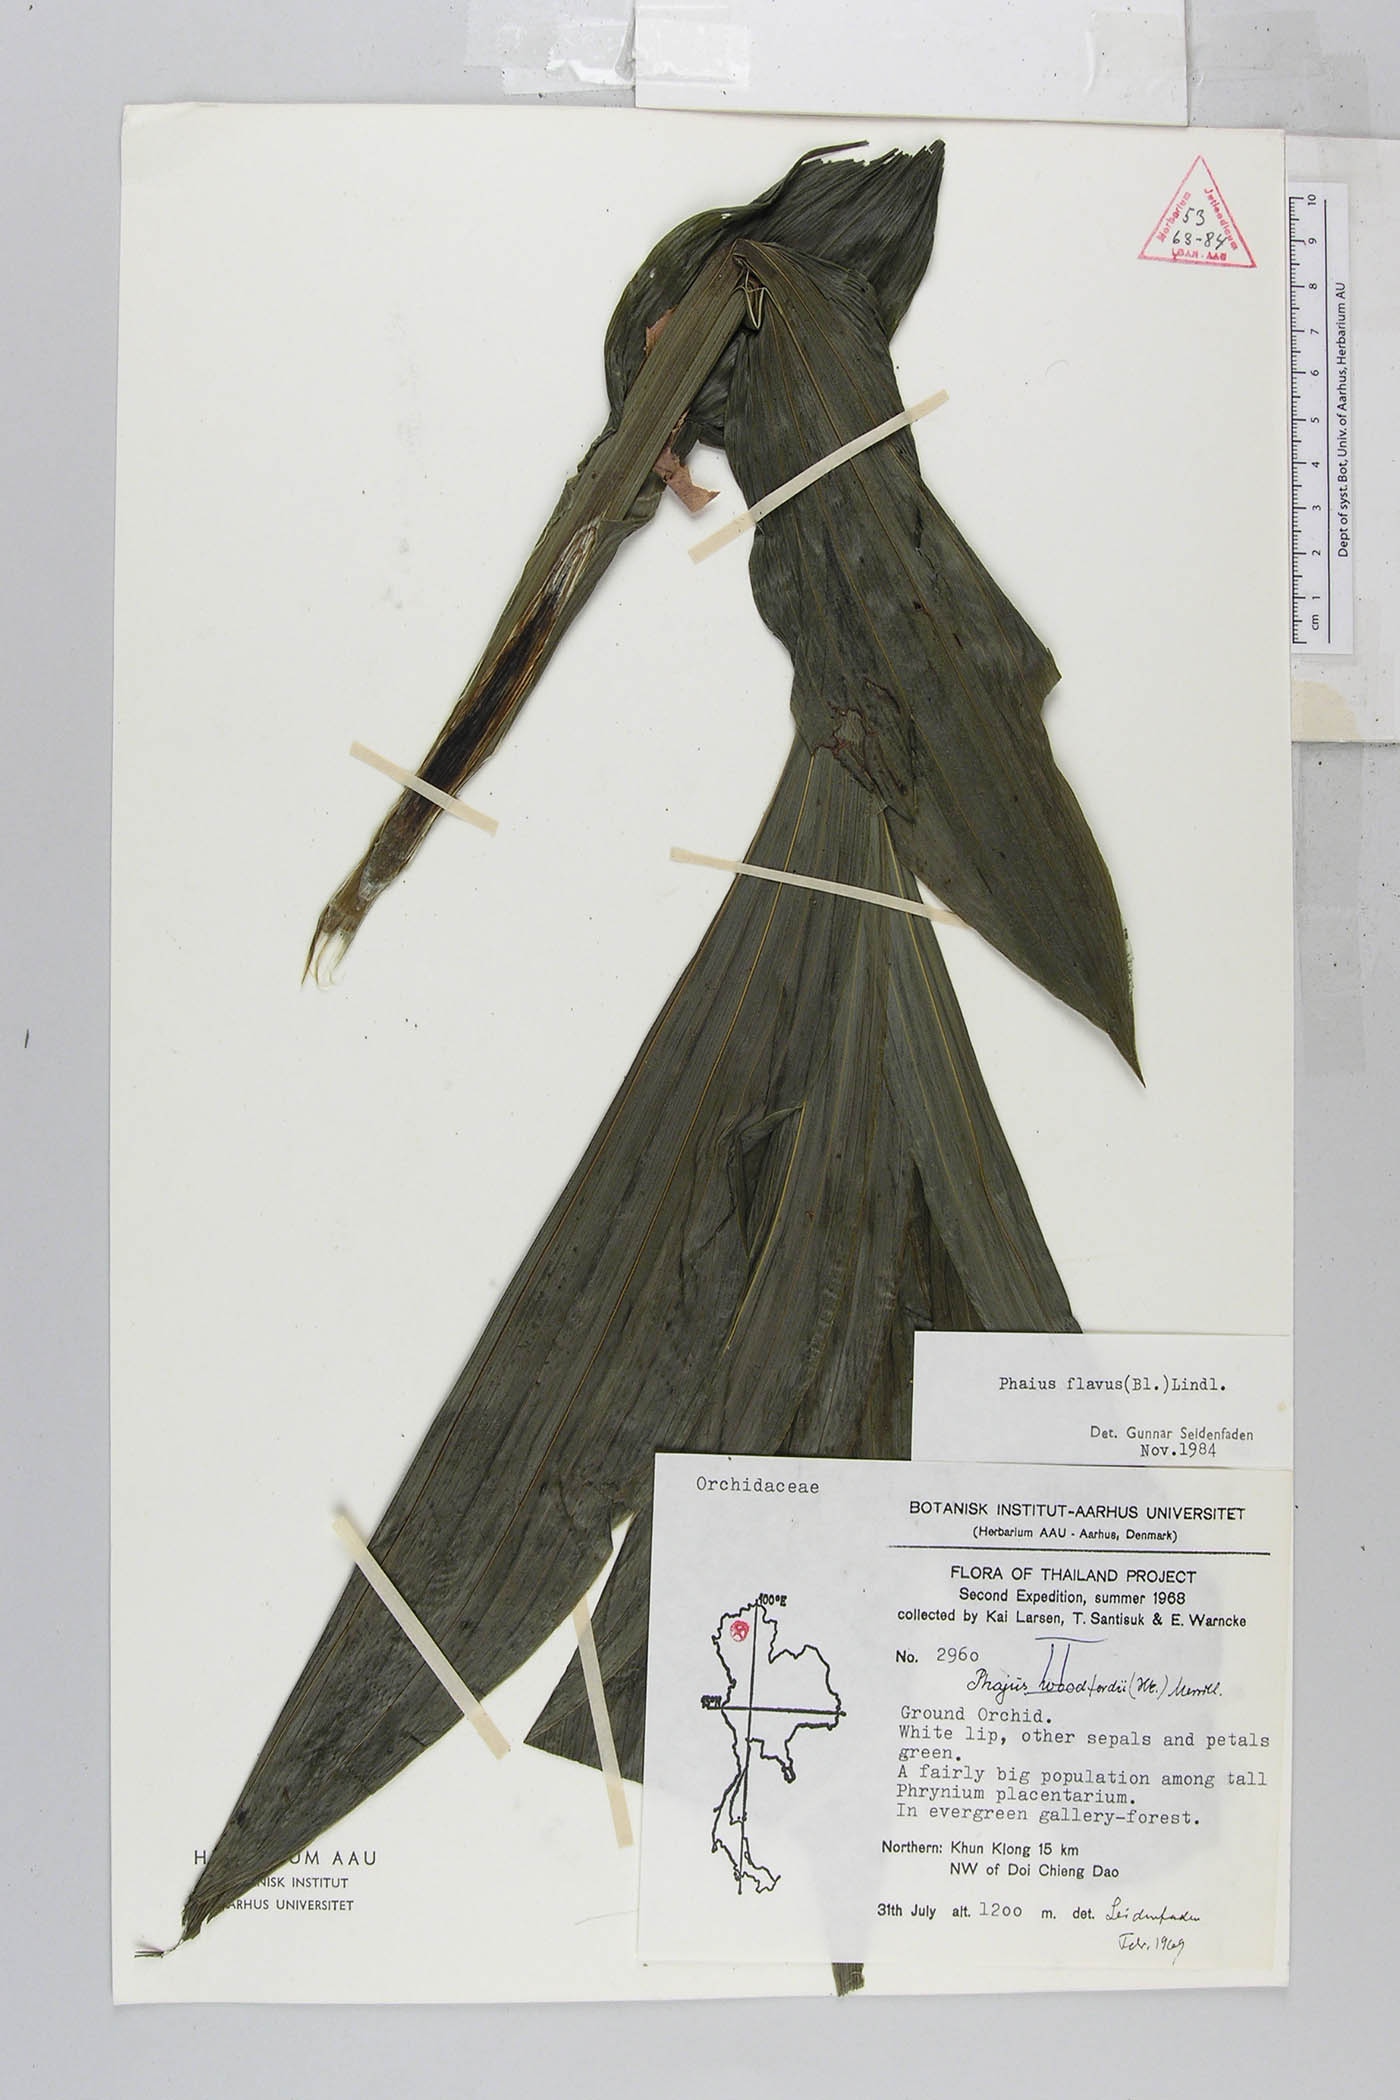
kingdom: Plantae
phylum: Tracheophyta
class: Liliopsida
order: Asparagales
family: Orchidaceae
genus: Calanthe
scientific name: Calanthe woodfordii
